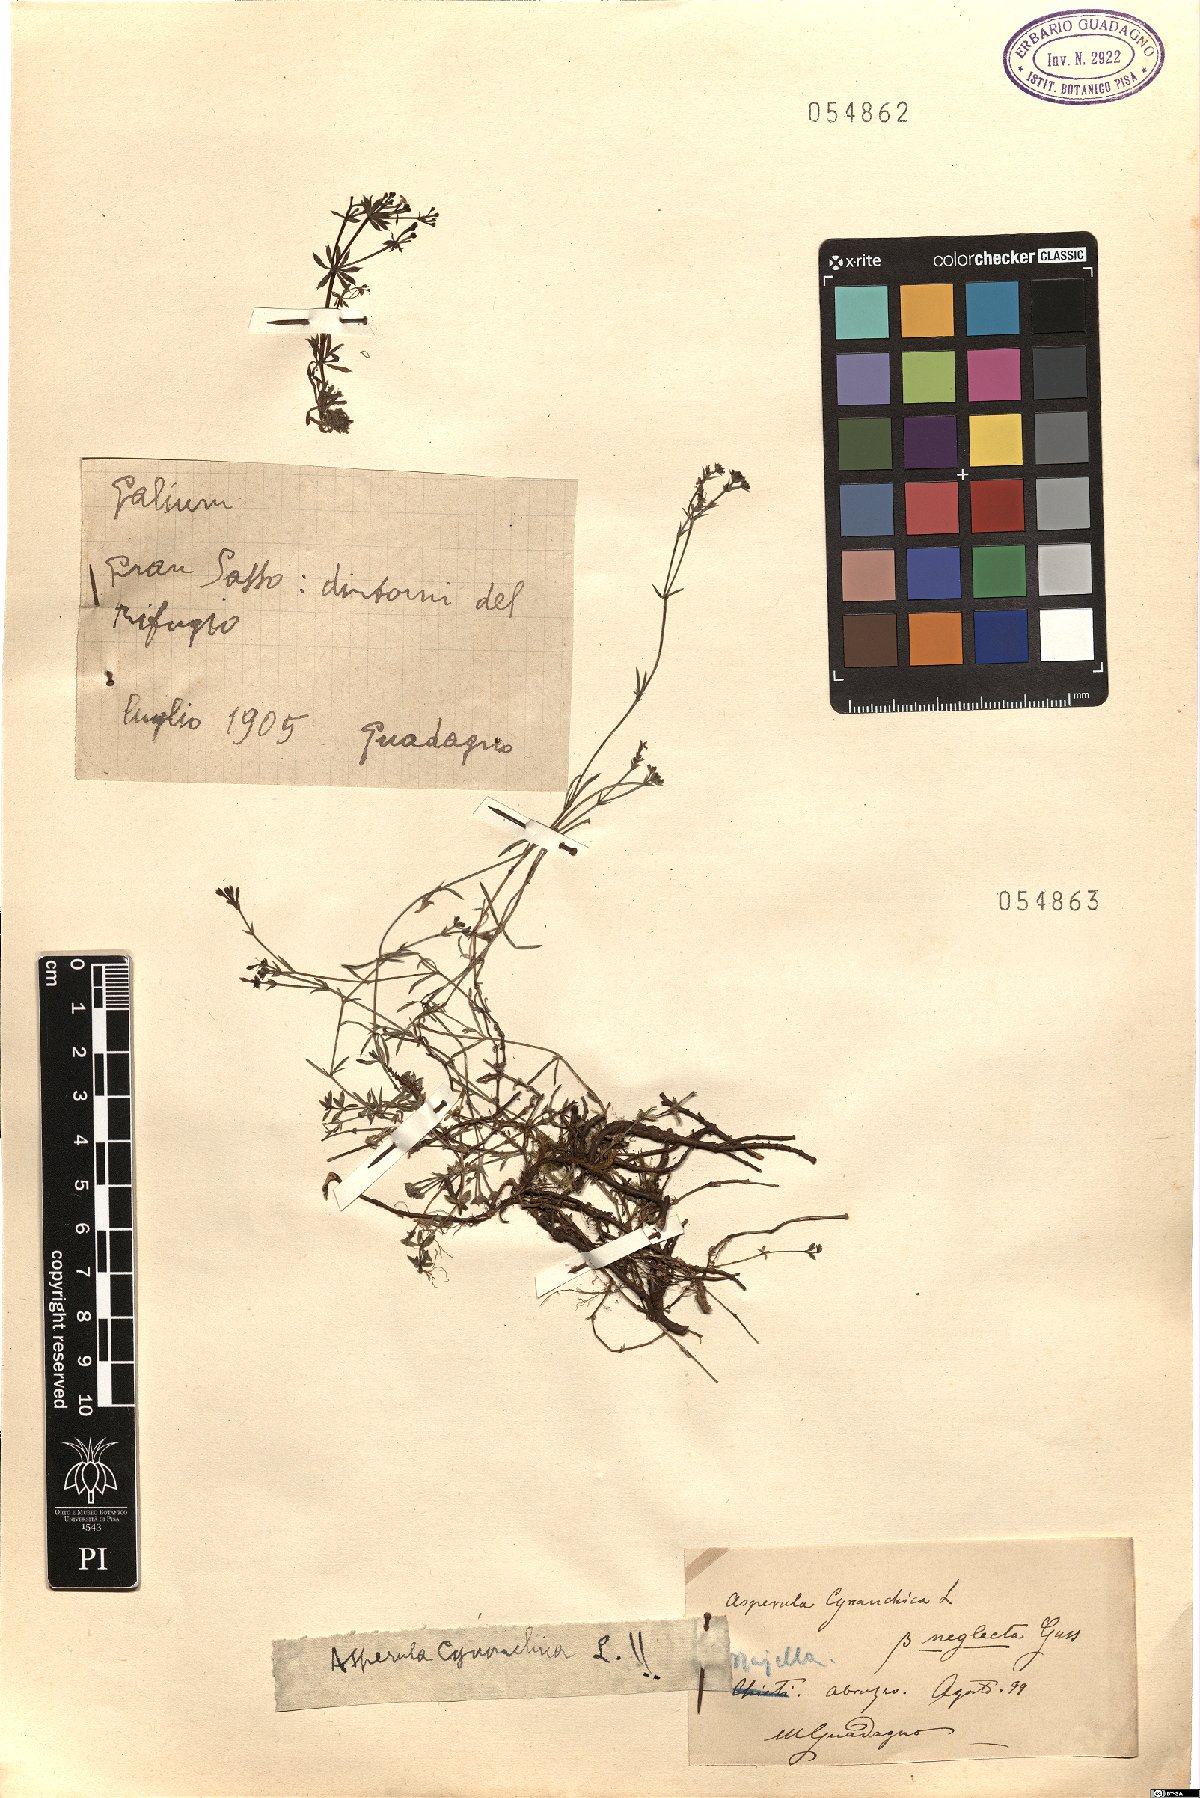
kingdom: Plantae
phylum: Tracheophyta
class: Magnoliopsida
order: Gentianales
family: Rubiaceae
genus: Galium
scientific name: Galium
